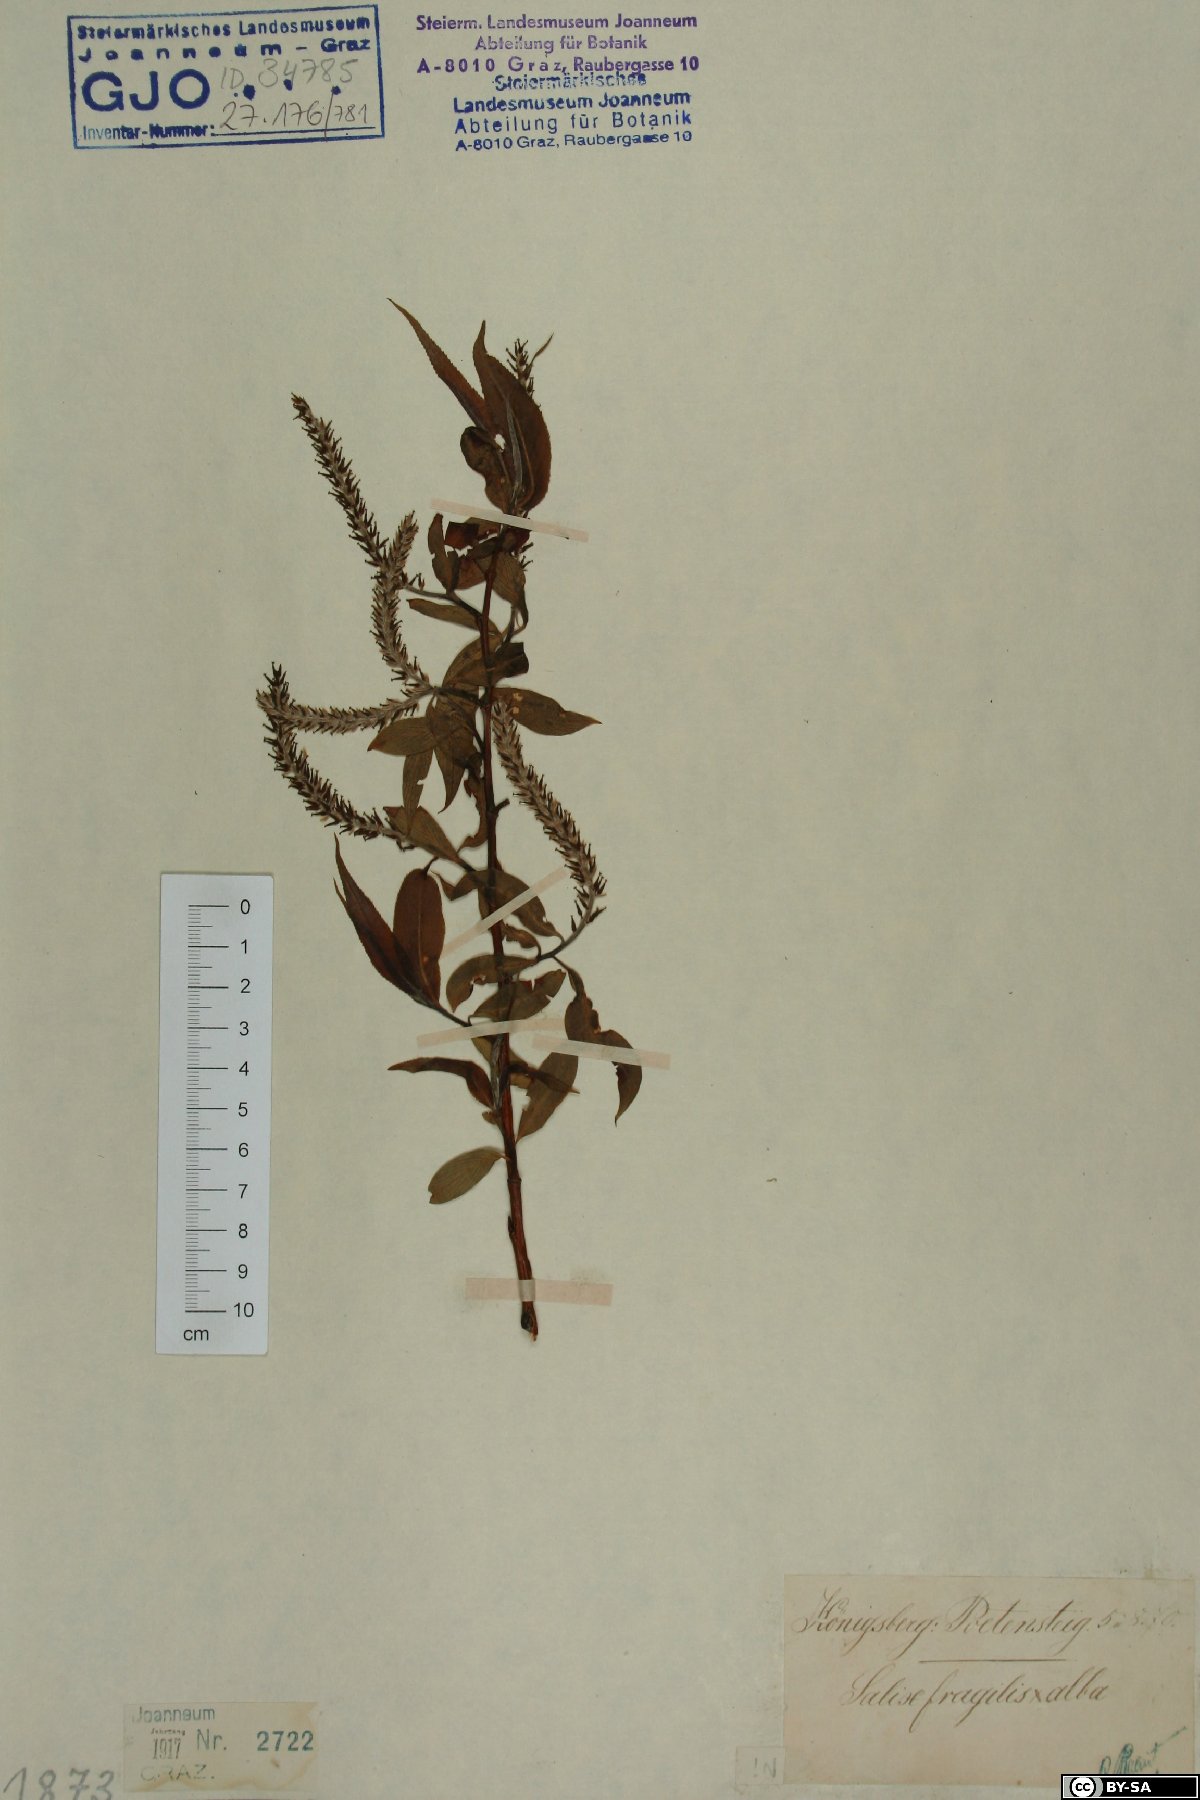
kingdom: Plantae
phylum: Tracheophyta
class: Magnoliopsida
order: Malpighiales
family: Salicaceae
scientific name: Salicaceae
